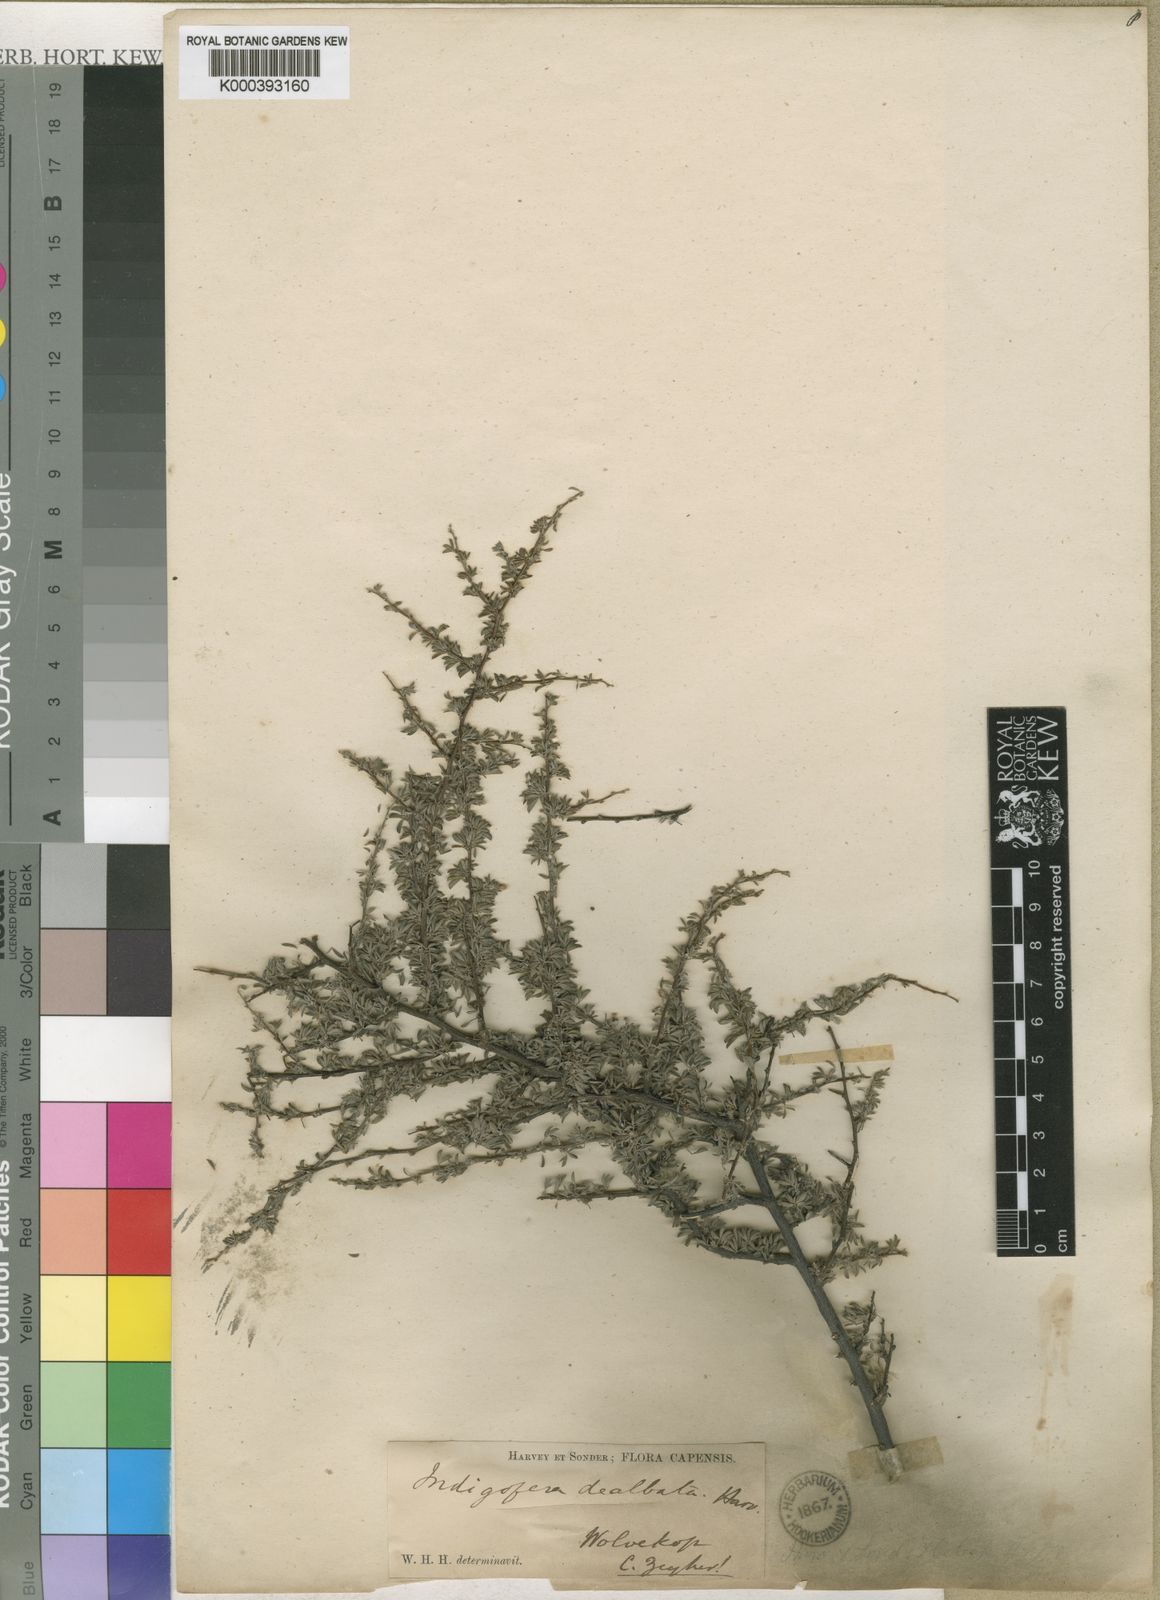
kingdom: Plantae
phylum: Tracheophyta
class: Magnoliopsida
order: Fabales
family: Fabaceae
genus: Indigofera
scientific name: Indigofera nigromontana
